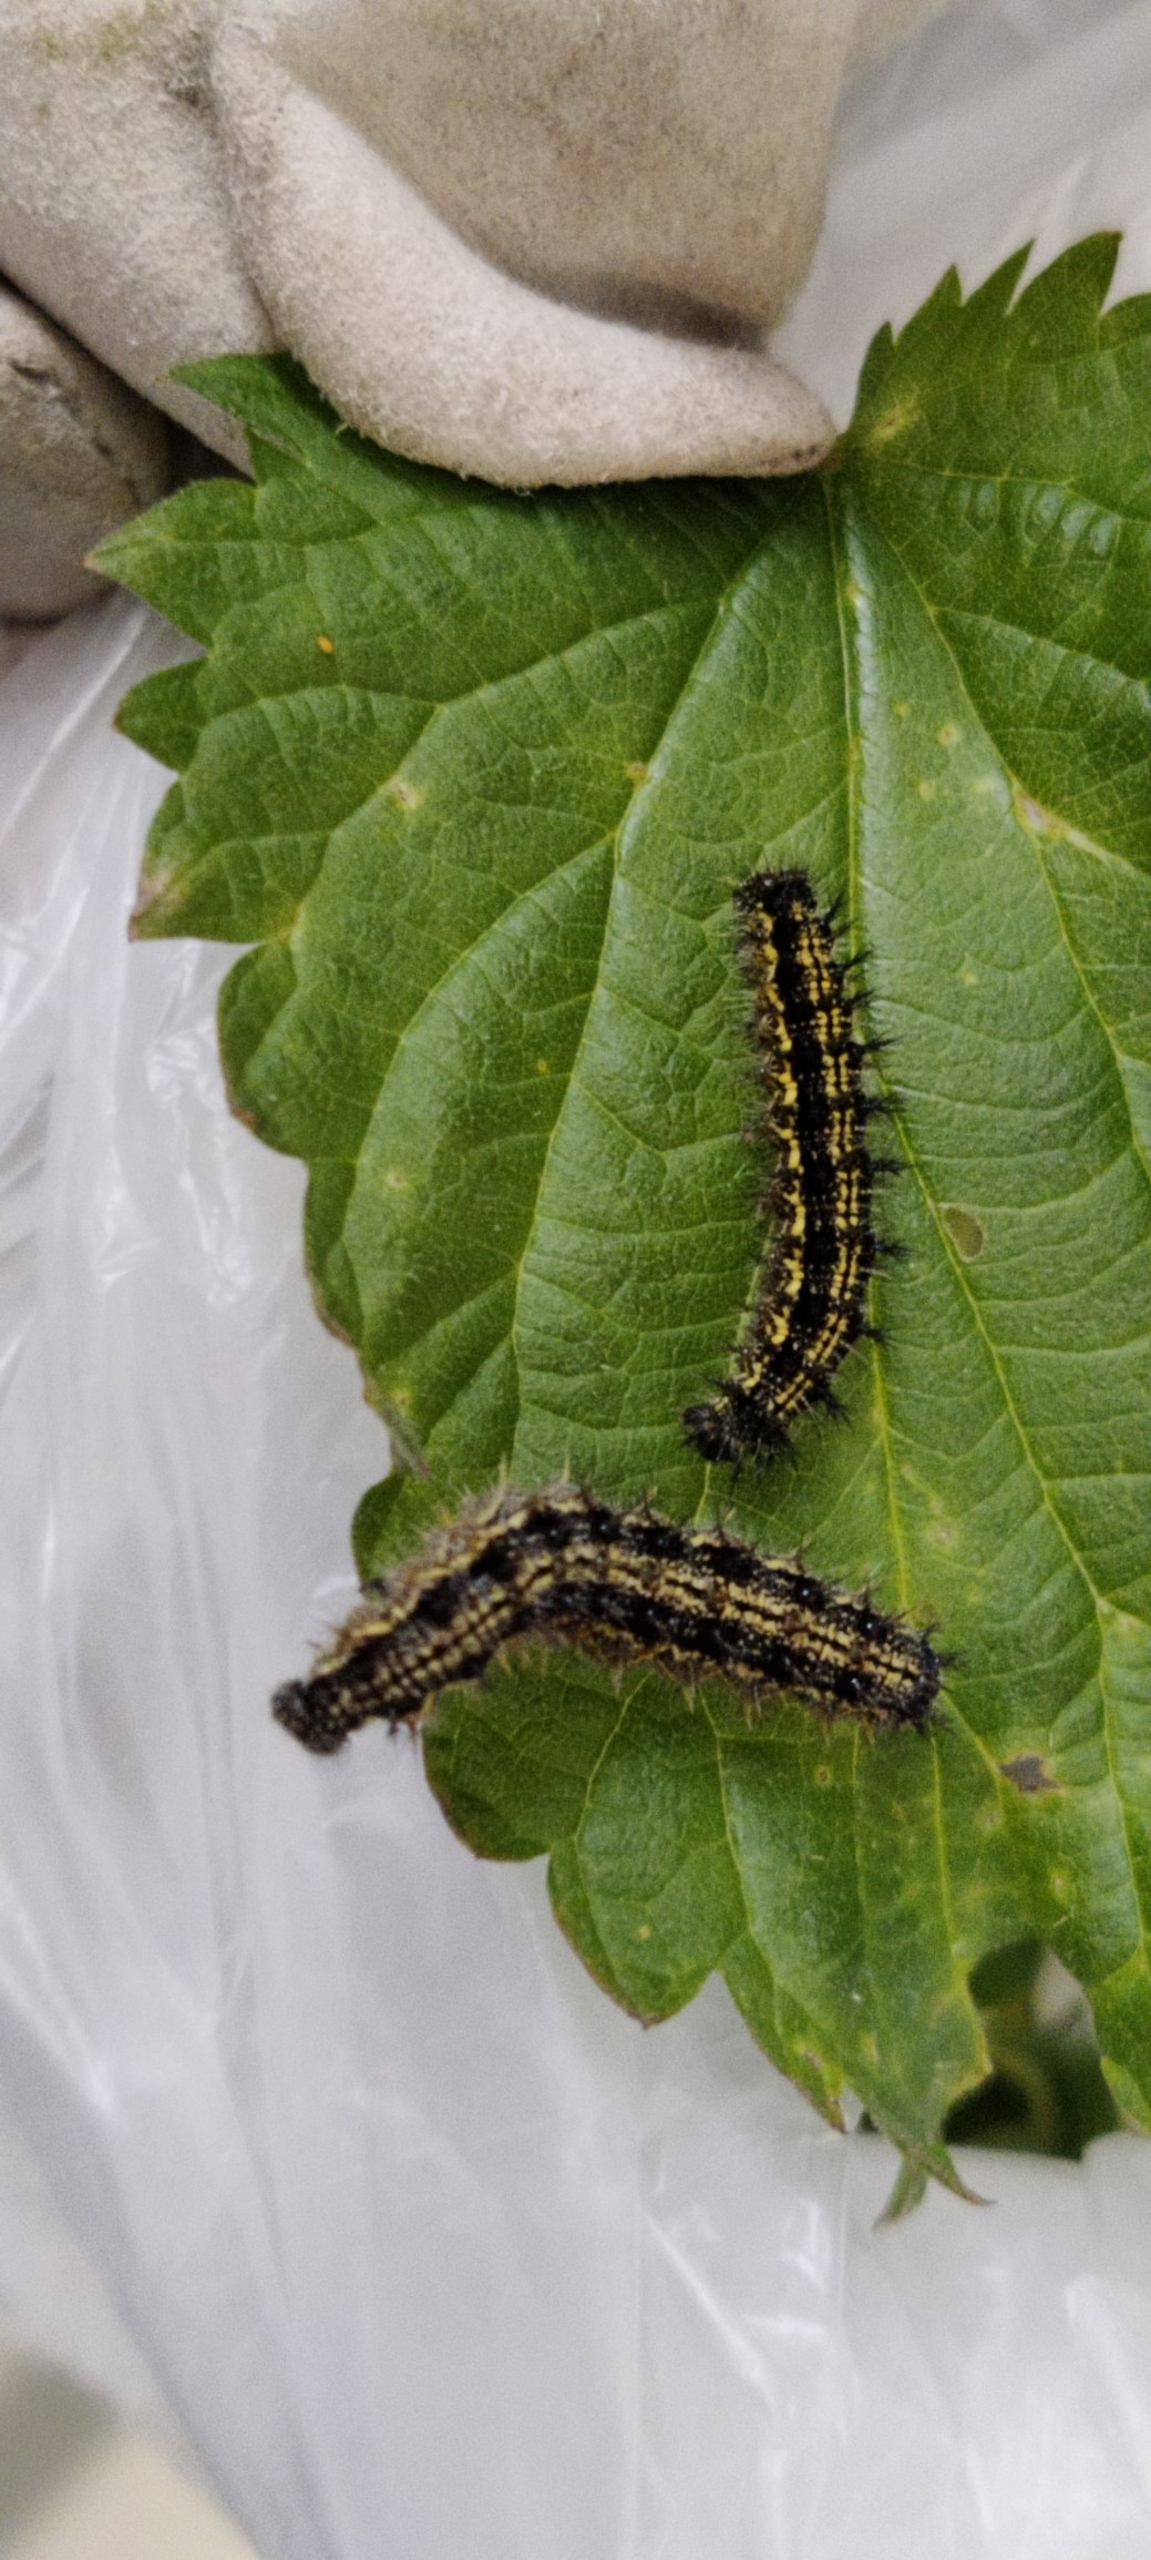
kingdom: Animalia
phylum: Arthropoda
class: Insecta
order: Lepidoptera
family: Nymphalidae
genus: Aglais
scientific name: Aglais urticae
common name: Nældens takvinge
